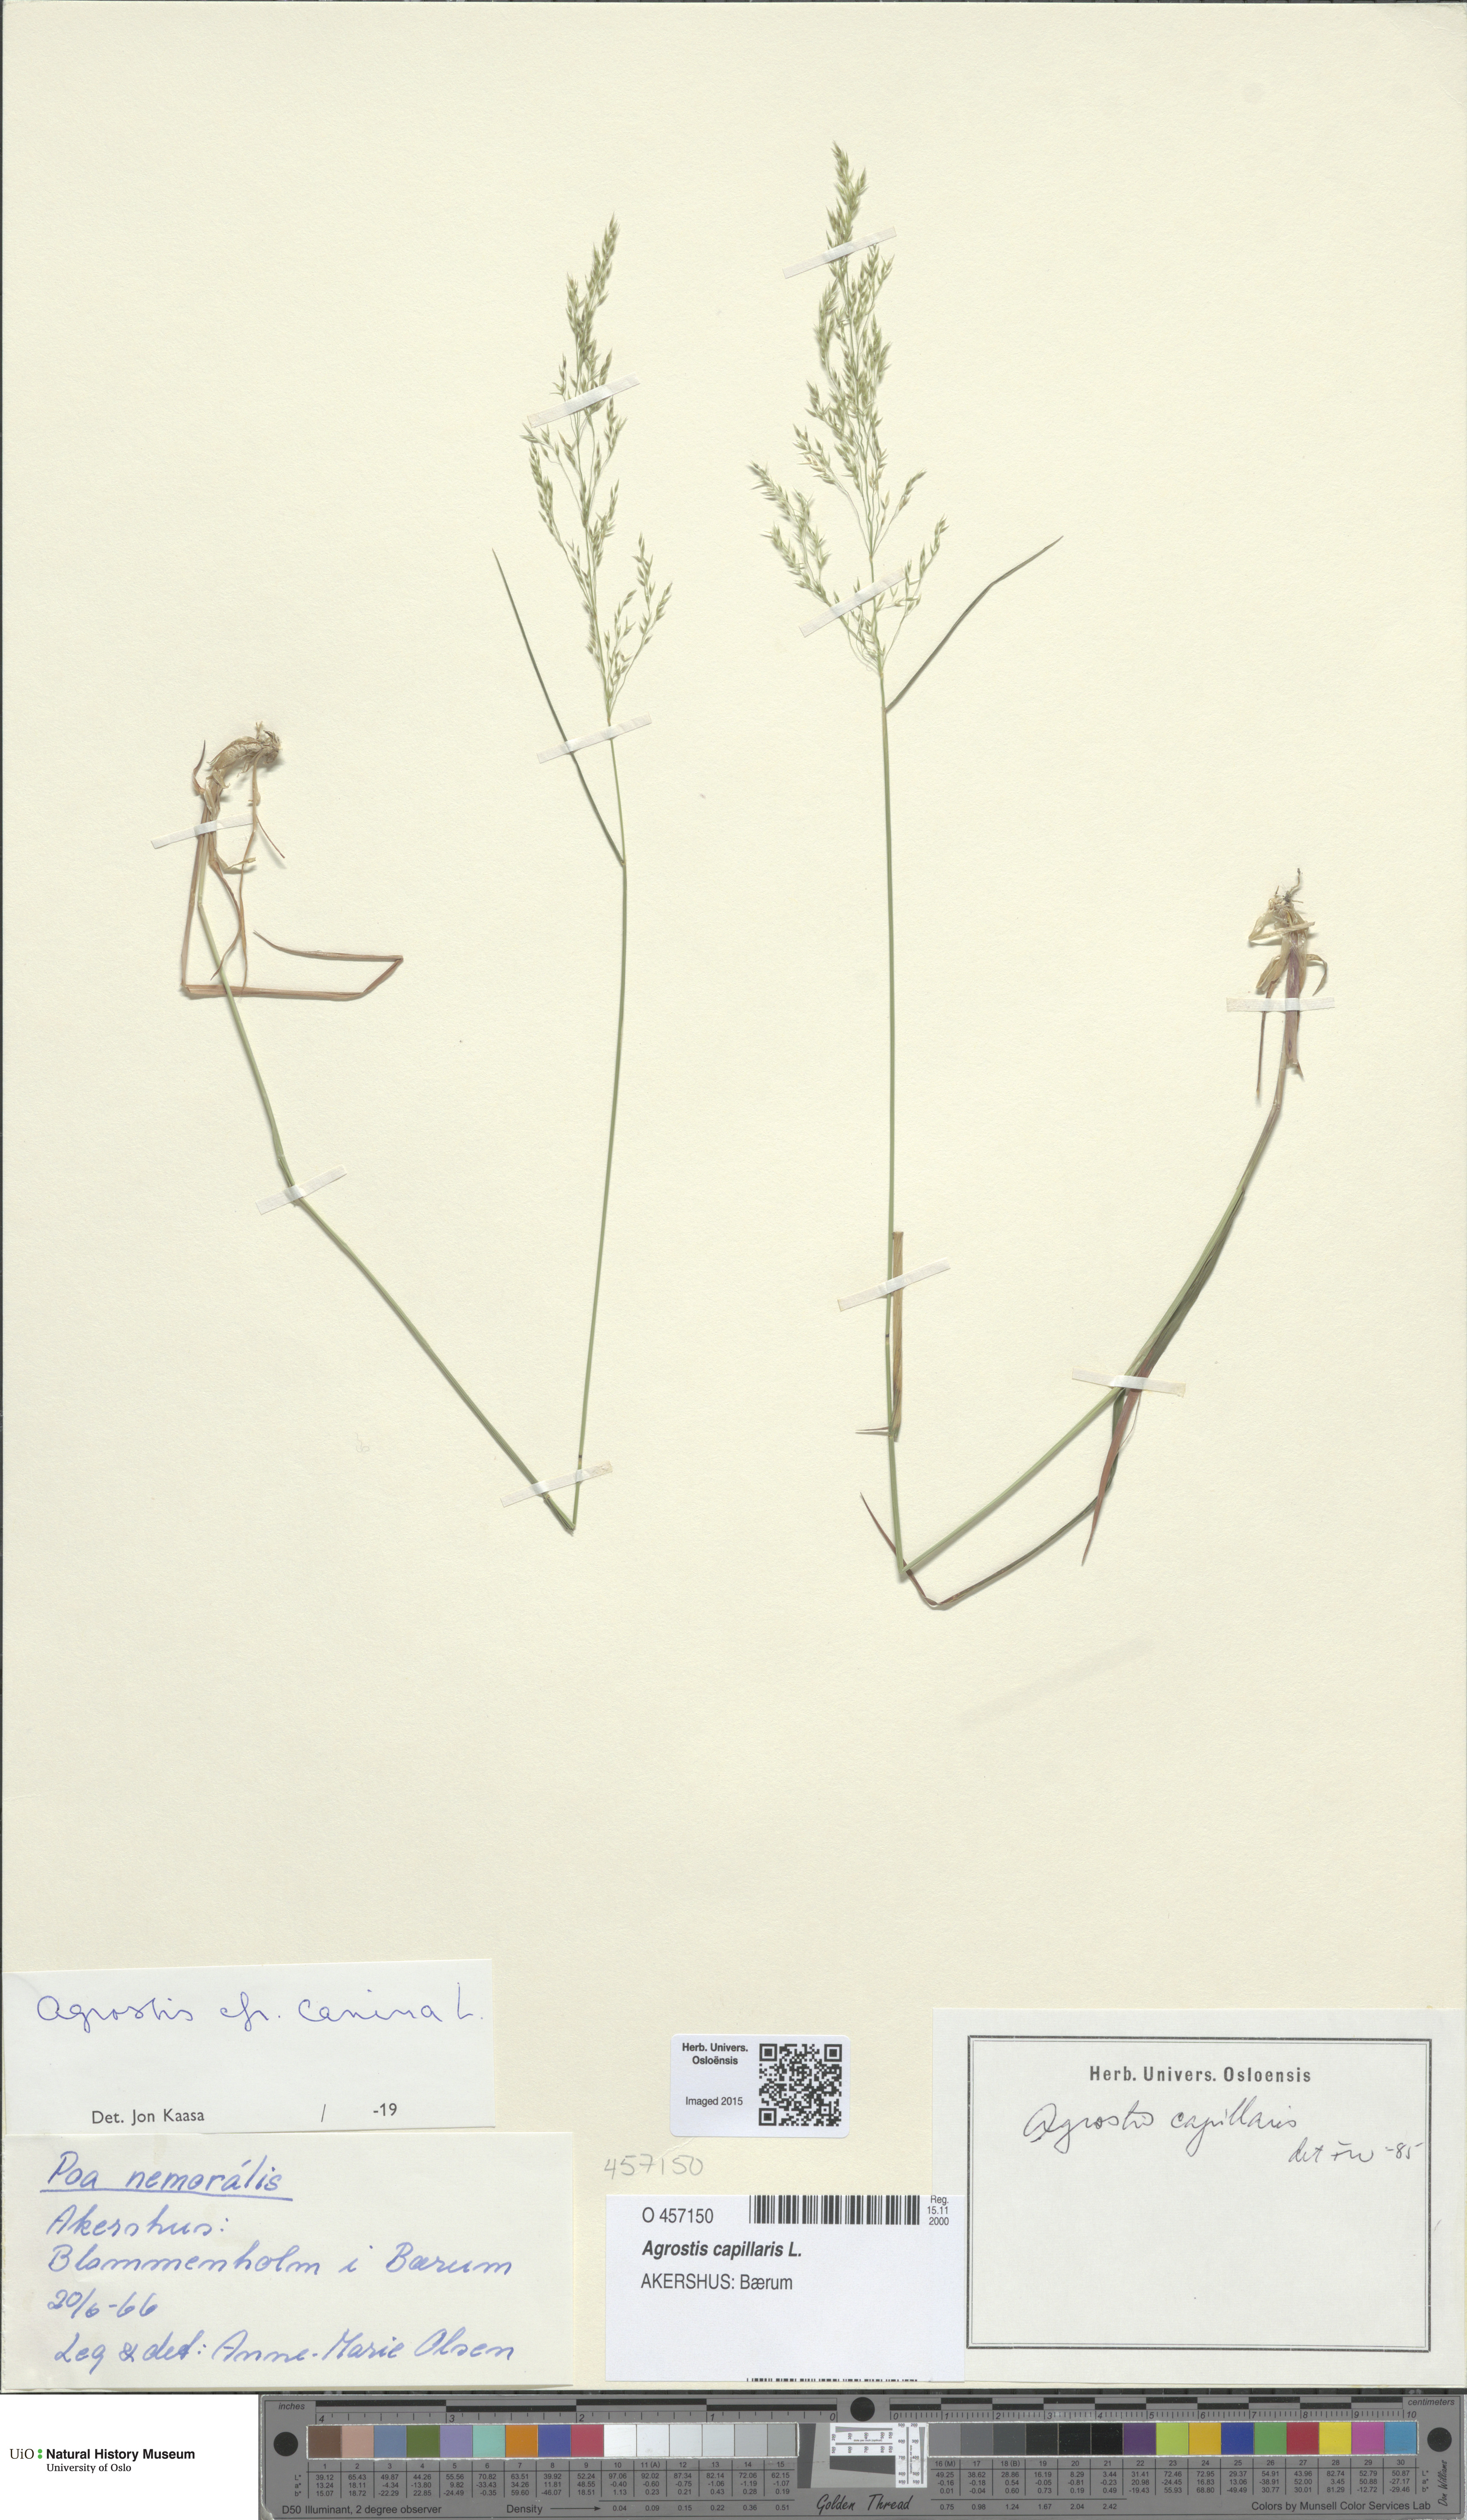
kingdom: Plantae
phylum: Tracheophyta
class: Liliopsida
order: Poales
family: Poaceae
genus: Agrostis
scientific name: Agrostis capillaris
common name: Colonial bentgrass
